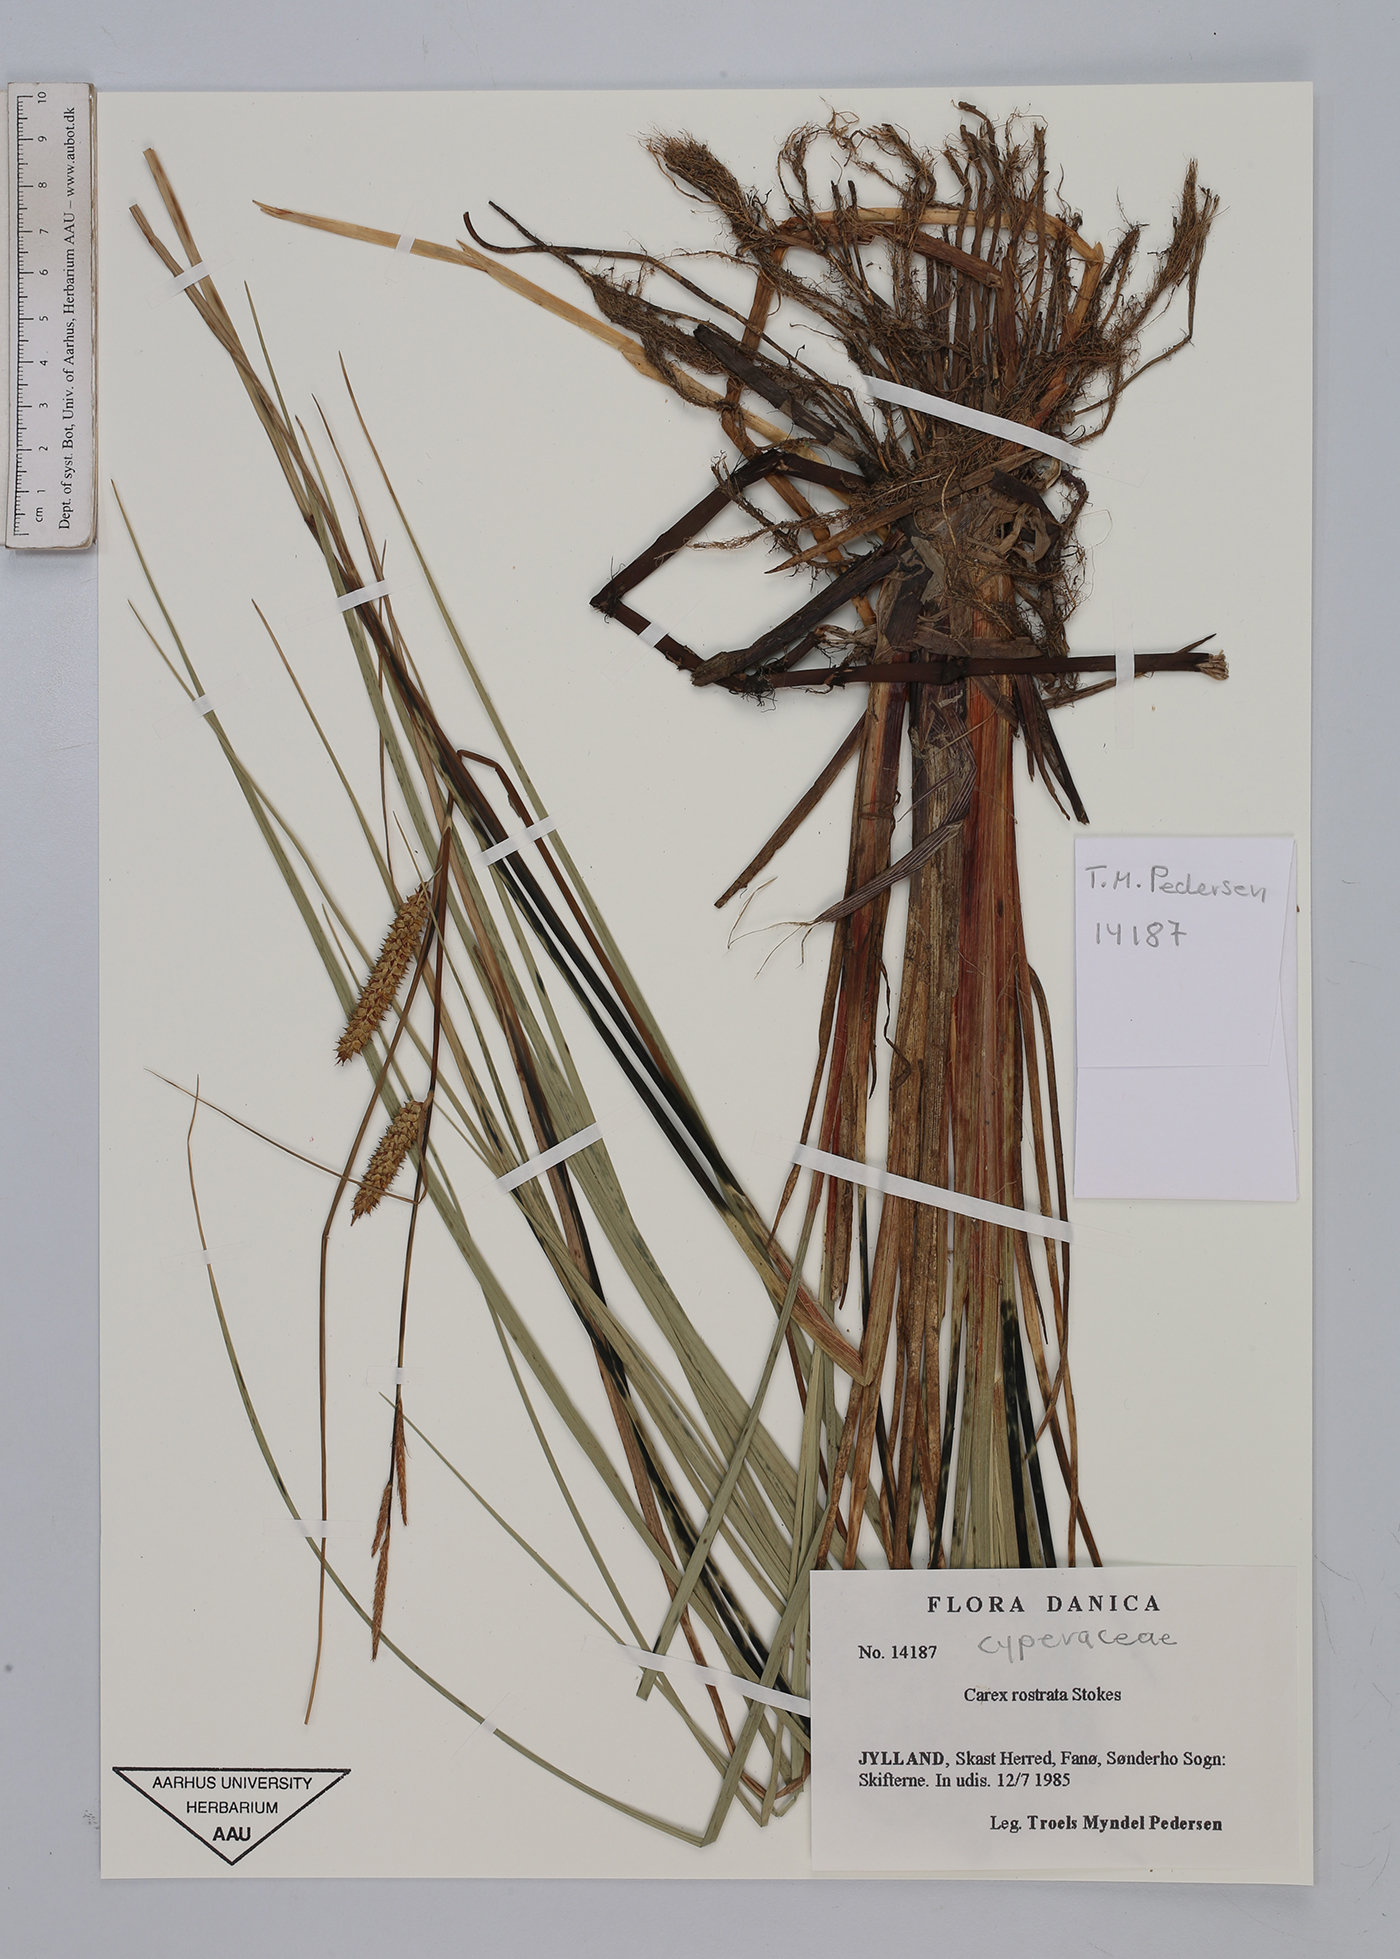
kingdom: Plantae
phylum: Tracheophyta
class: Liliopsida
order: Poales
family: Cyperaceae
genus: Carex
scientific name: Carex rostrata
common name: Bottle sedge
